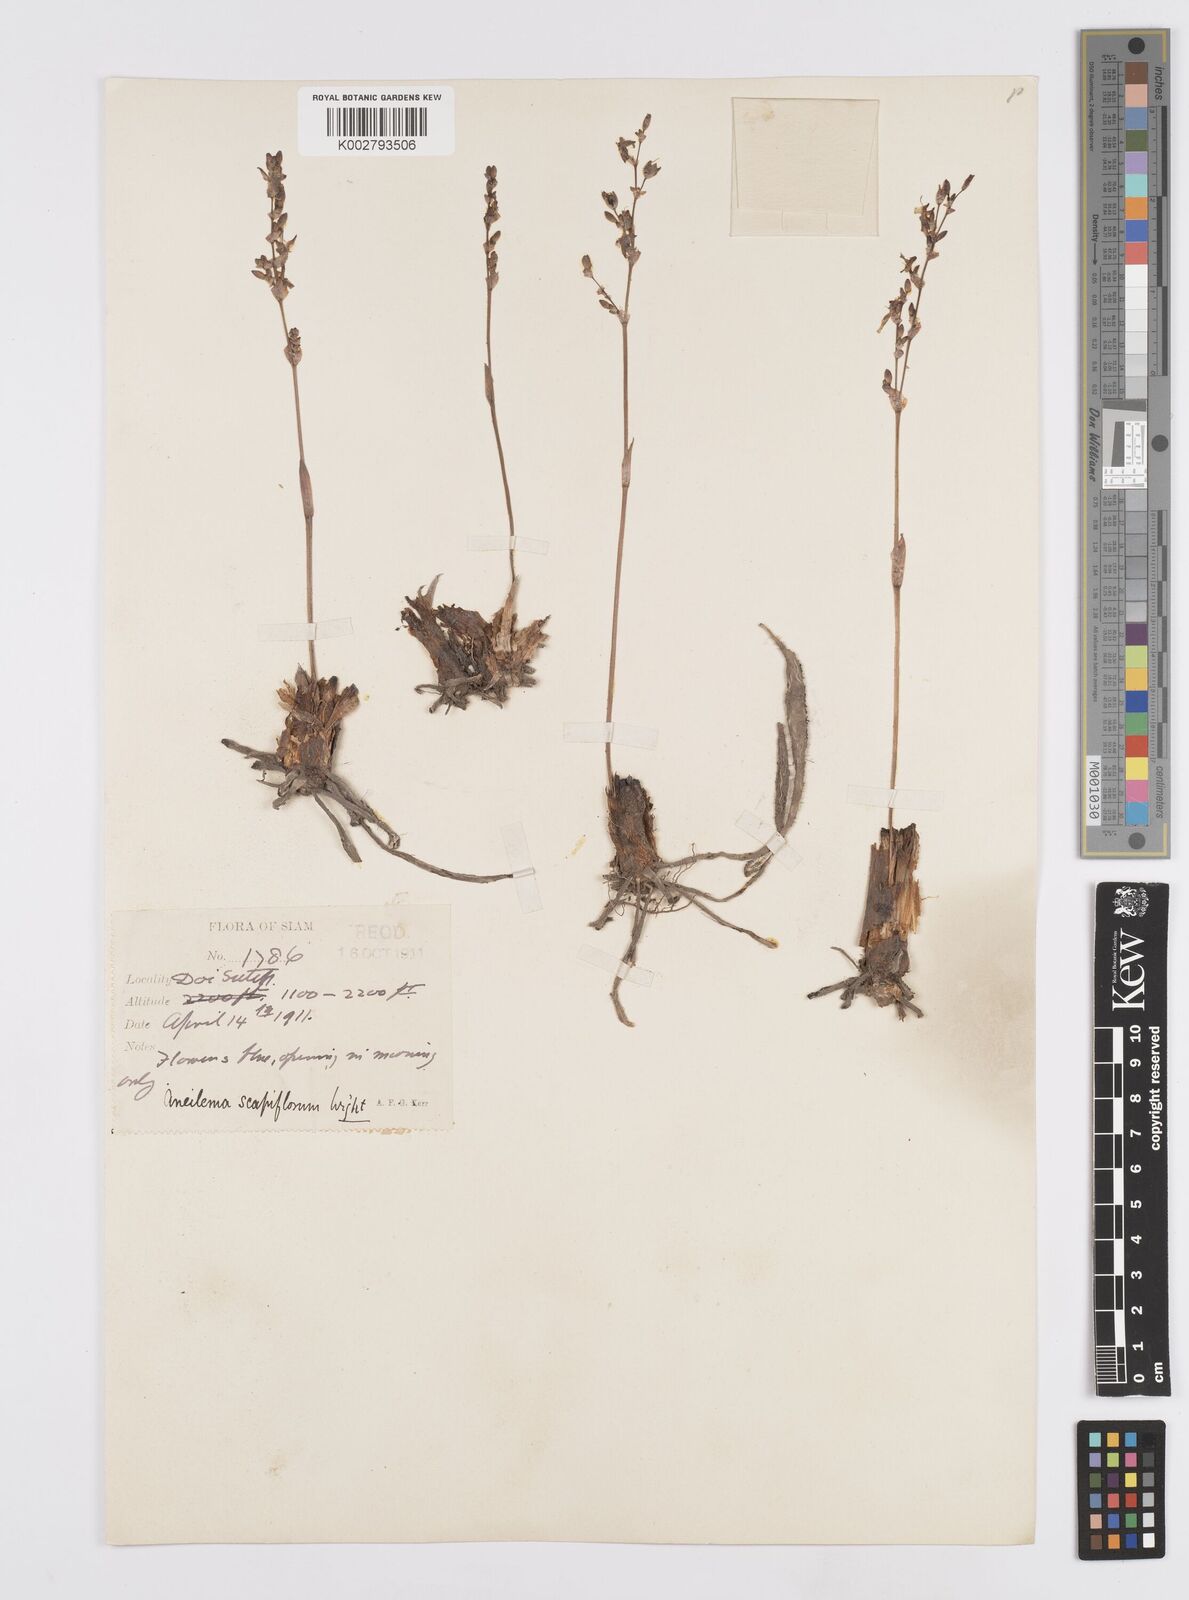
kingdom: Plantae
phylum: Tracheophyta
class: Liliopsida
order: Commelinales
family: Commelinaceae
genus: Murdannia
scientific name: Murdannia edulis
